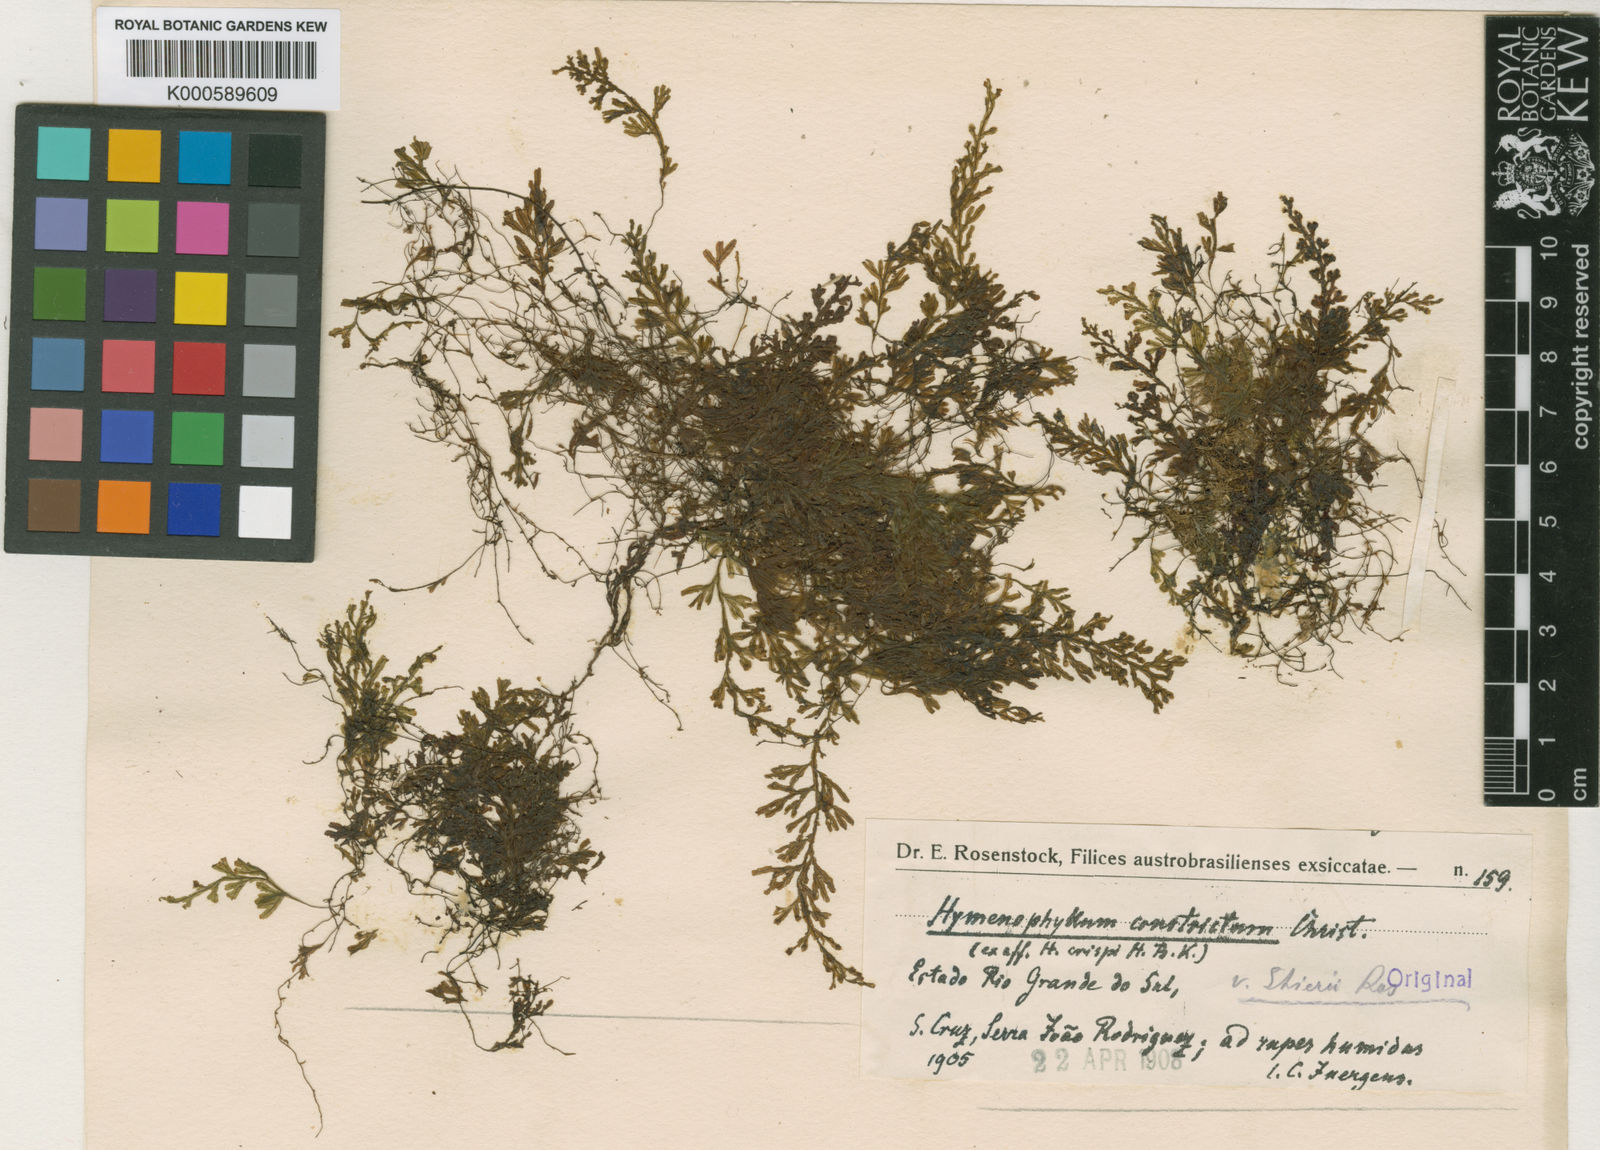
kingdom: Plantae
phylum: Tracheophyta
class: Polypodiopsida
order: Hymenophyllales
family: Hymenophyllaceae
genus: Hymenophyllum
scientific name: Hymenophyllum crispum
